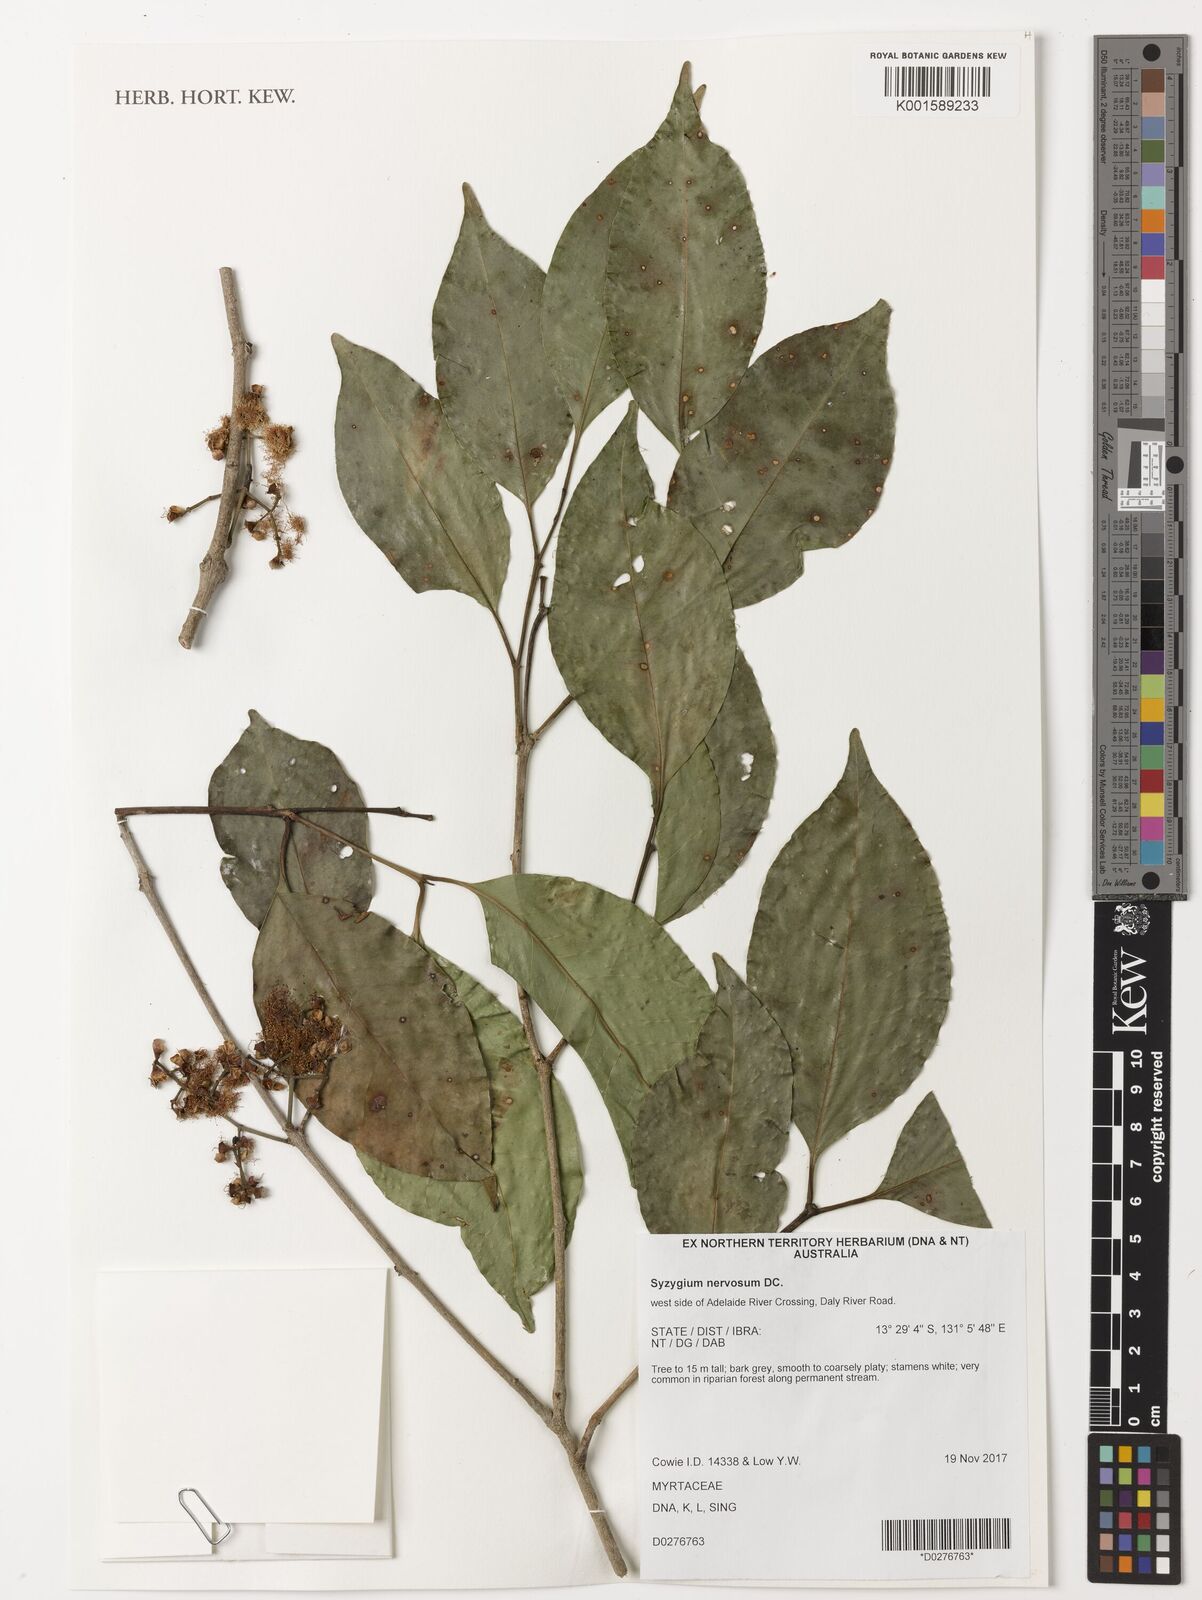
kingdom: Plantae
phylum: Tracheophyta
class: Magnoliopsida
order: Myrtales
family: Myrtaceae
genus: Syzygium
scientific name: Syzygium nervosum
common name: Daly river satinash
